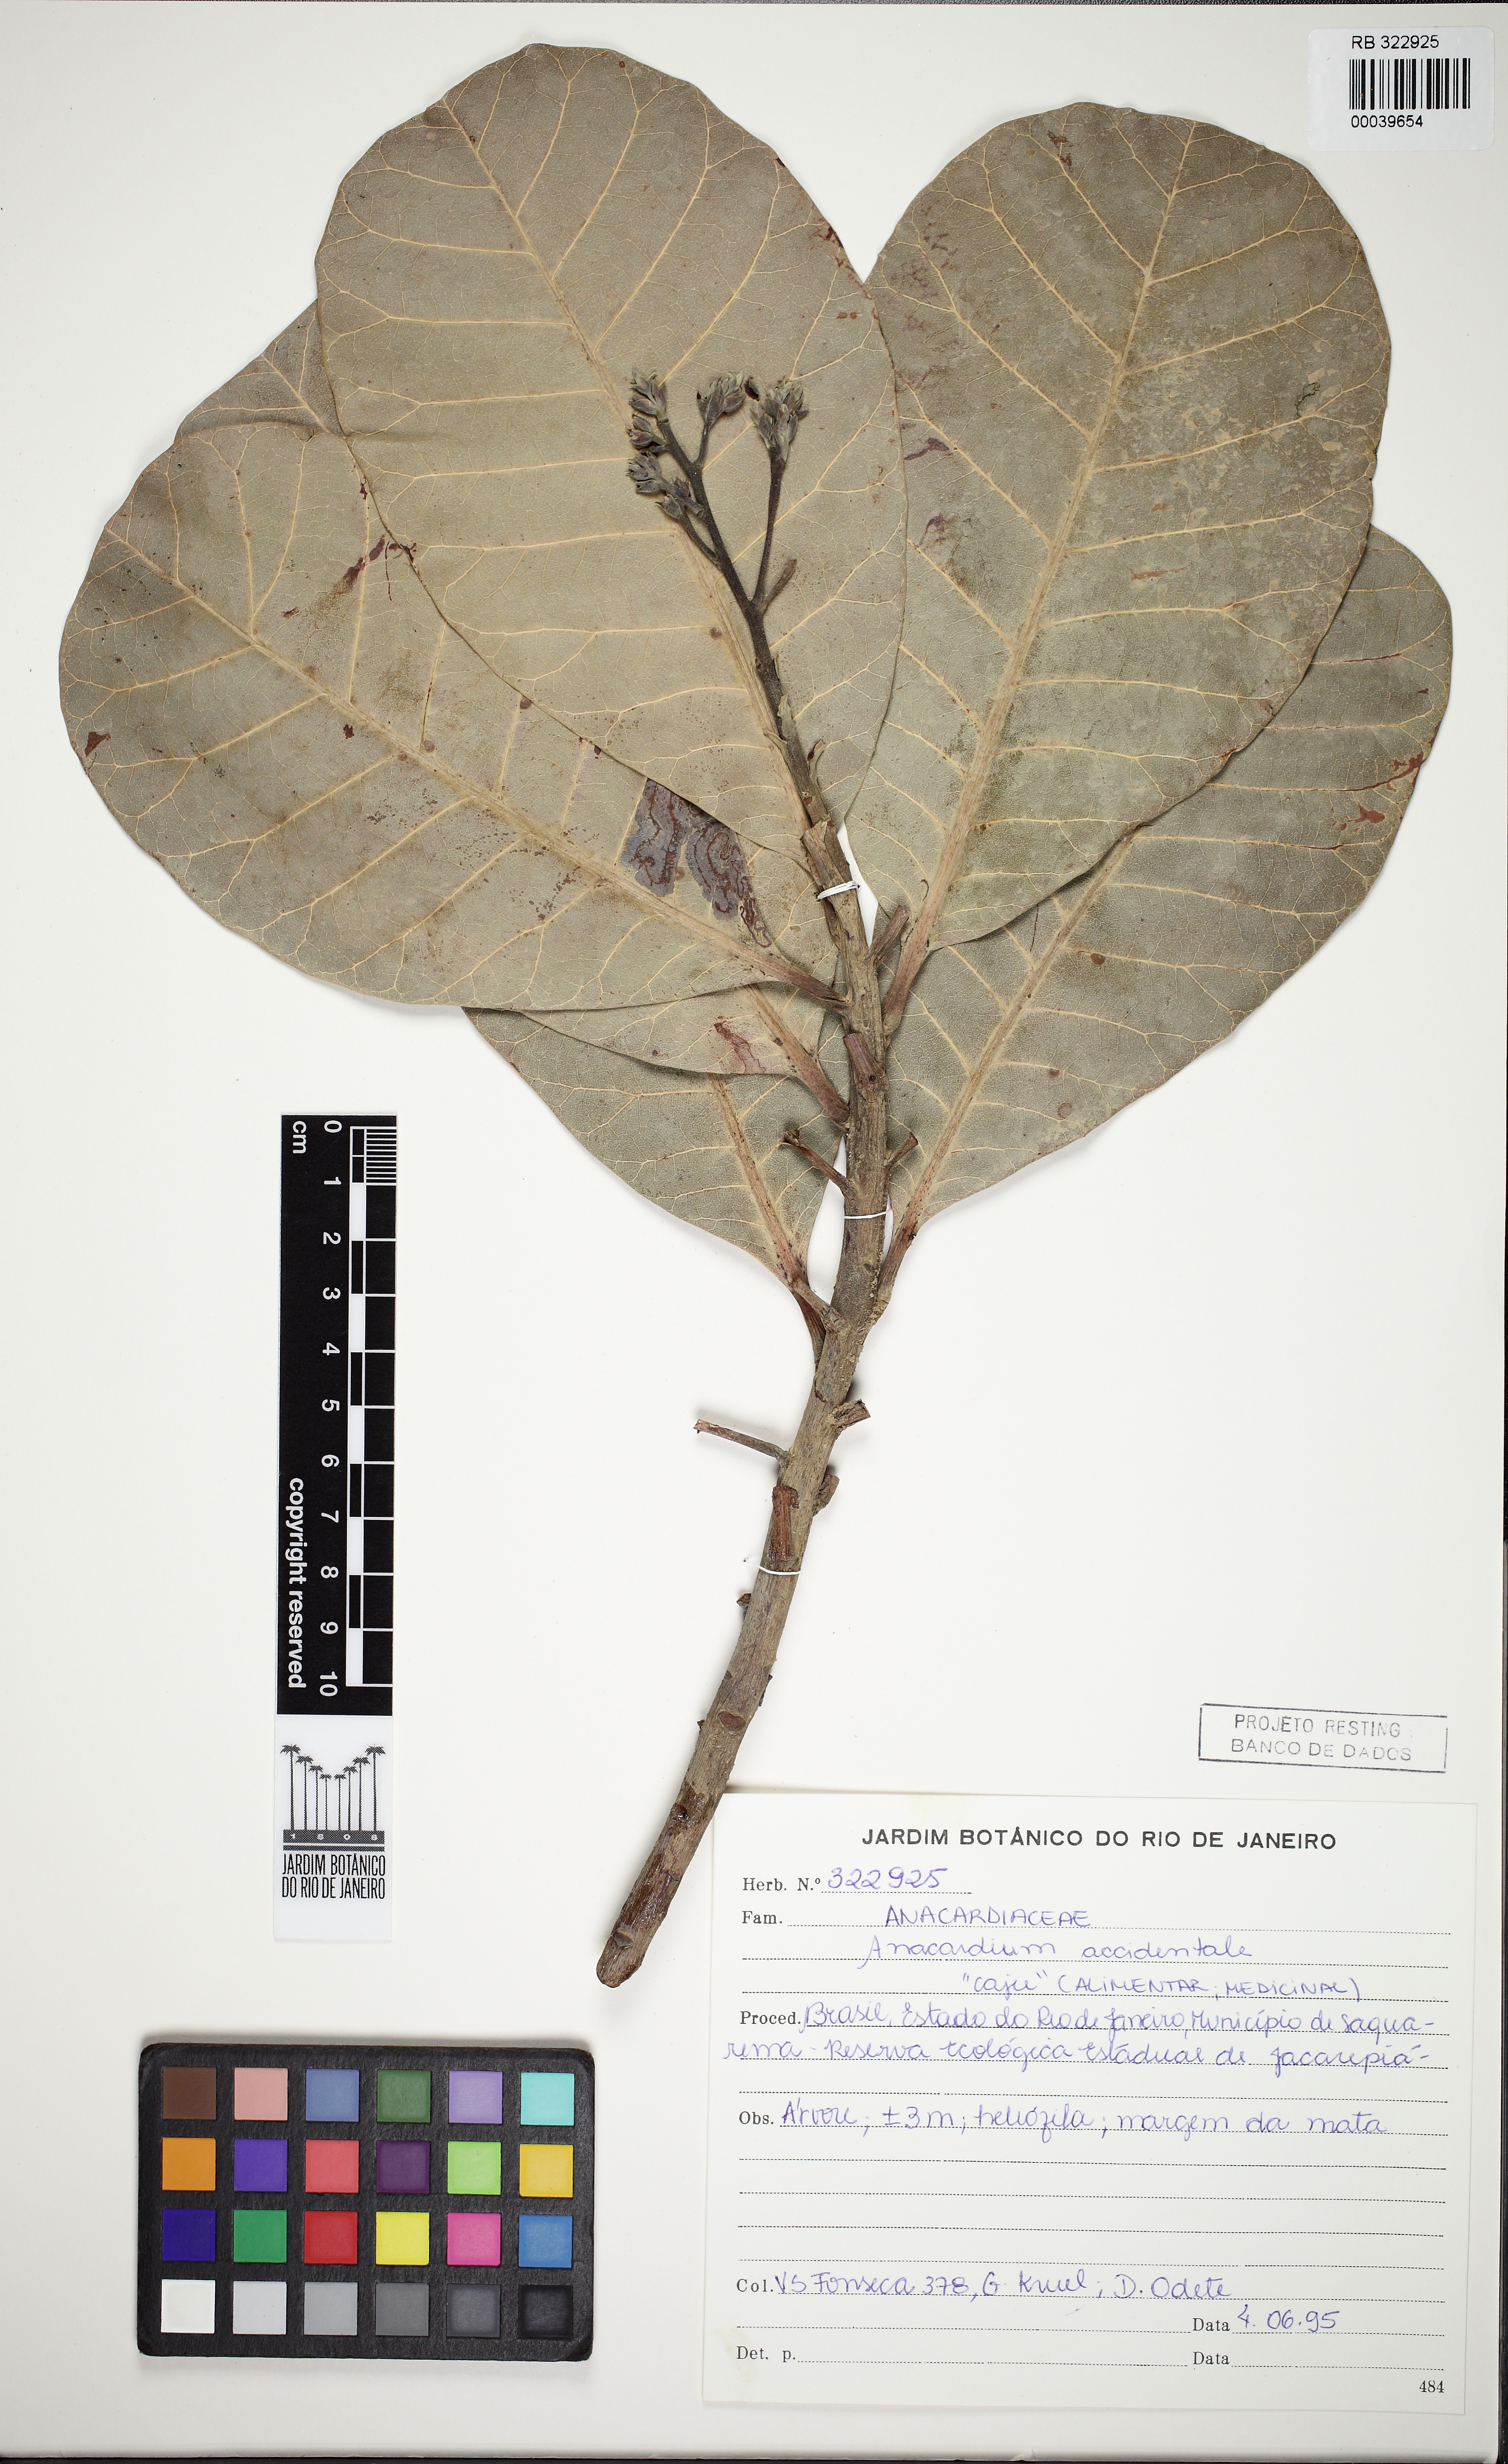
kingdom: Plantae
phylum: Tracheophyta
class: Magnoliopsida
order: Sapindales
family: Anacardiaceae
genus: Anacardium
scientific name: Anacardium occidentale
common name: Cashew
